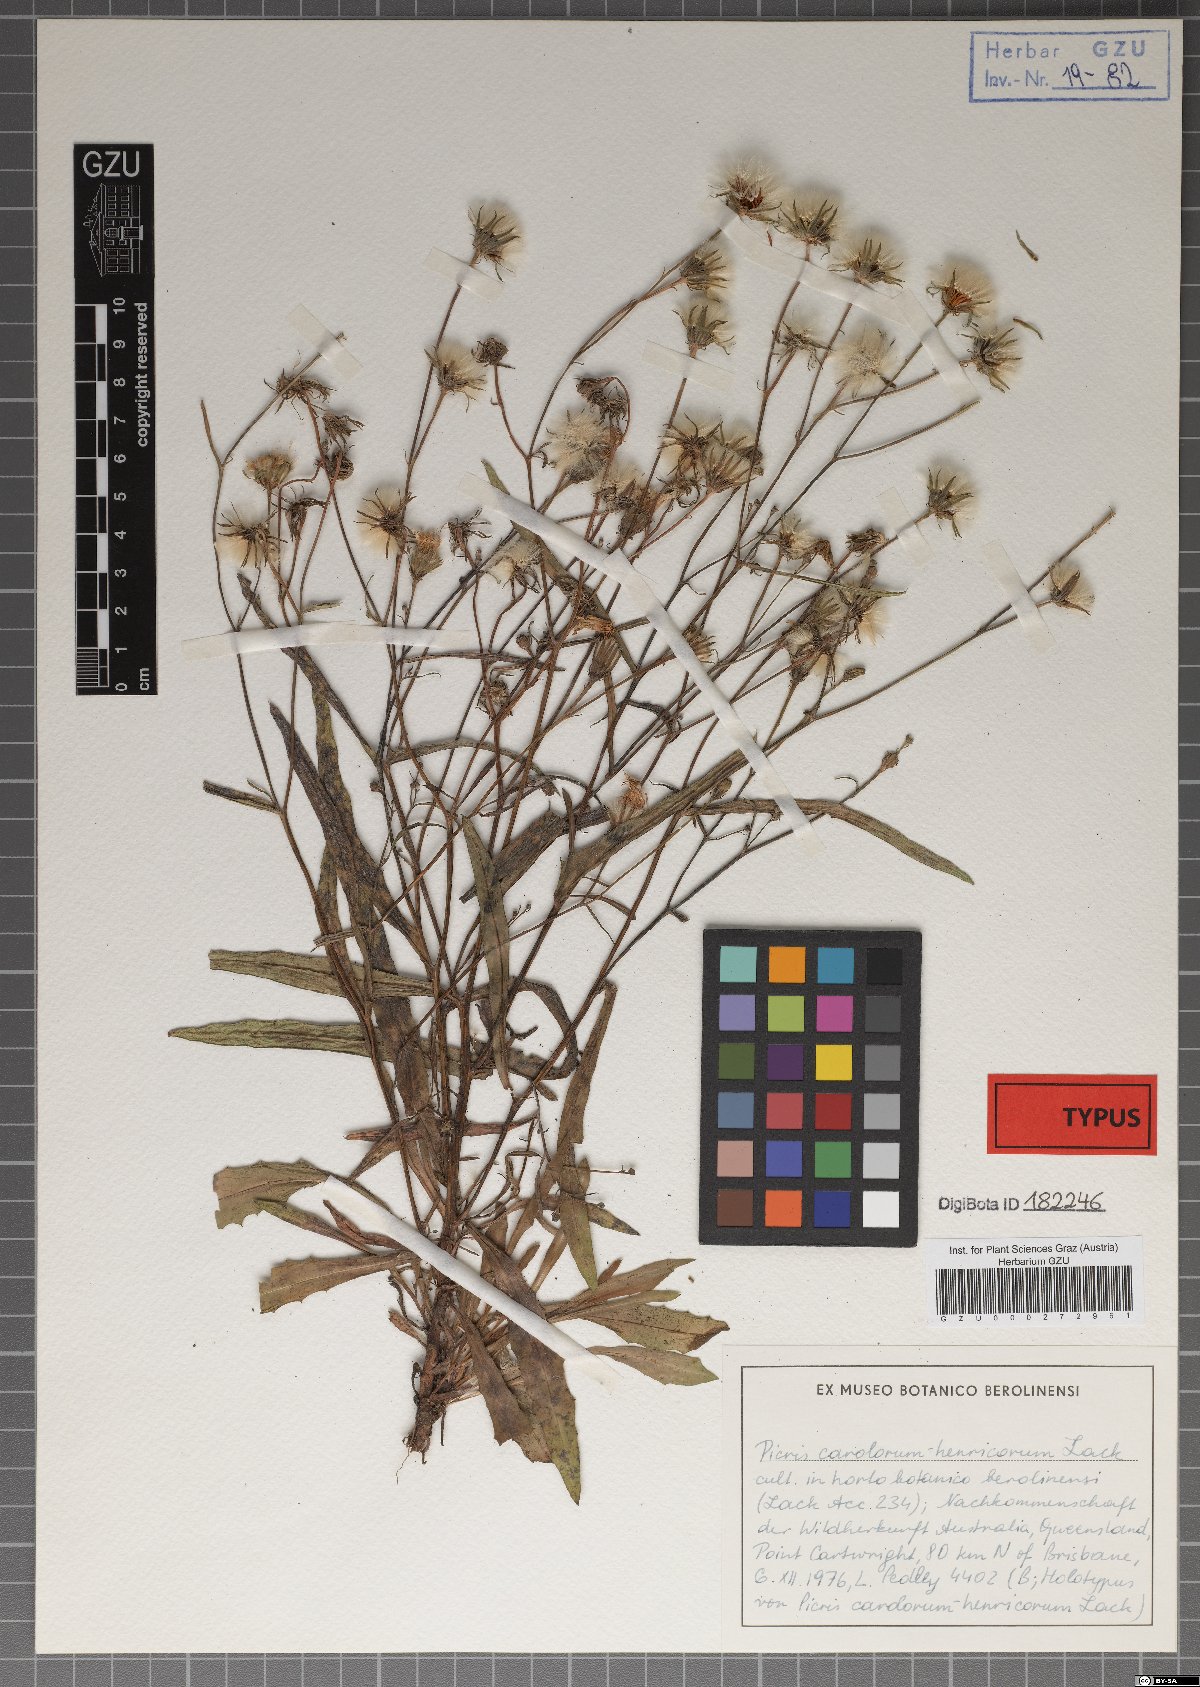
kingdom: Plantae
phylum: Tracheophyta
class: Magnoliopsida
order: Asterales
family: Asteraceae
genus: Picris
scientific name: Picris angustifolia
